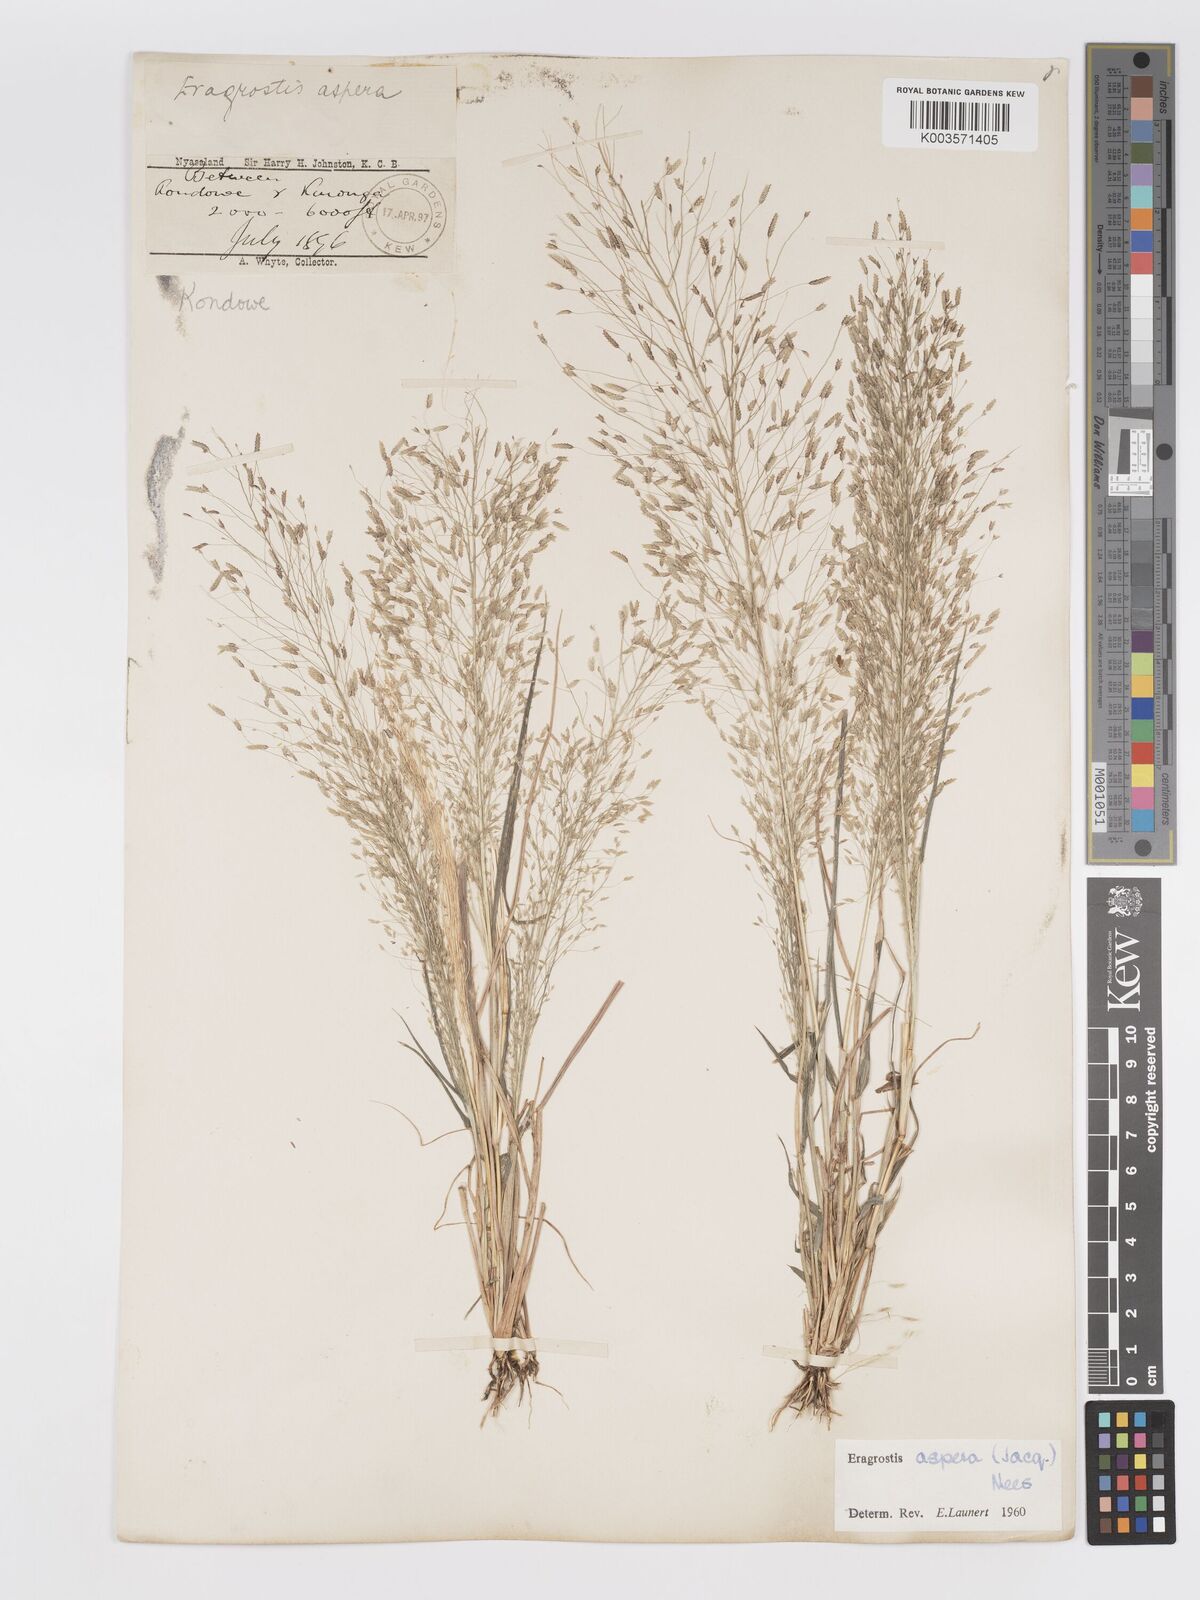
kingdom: Plantae
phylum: Tracheophyta
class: Liliopsida
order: Poales
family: Poaceae
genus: Eragrostis
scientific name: Eragrostis aspera
